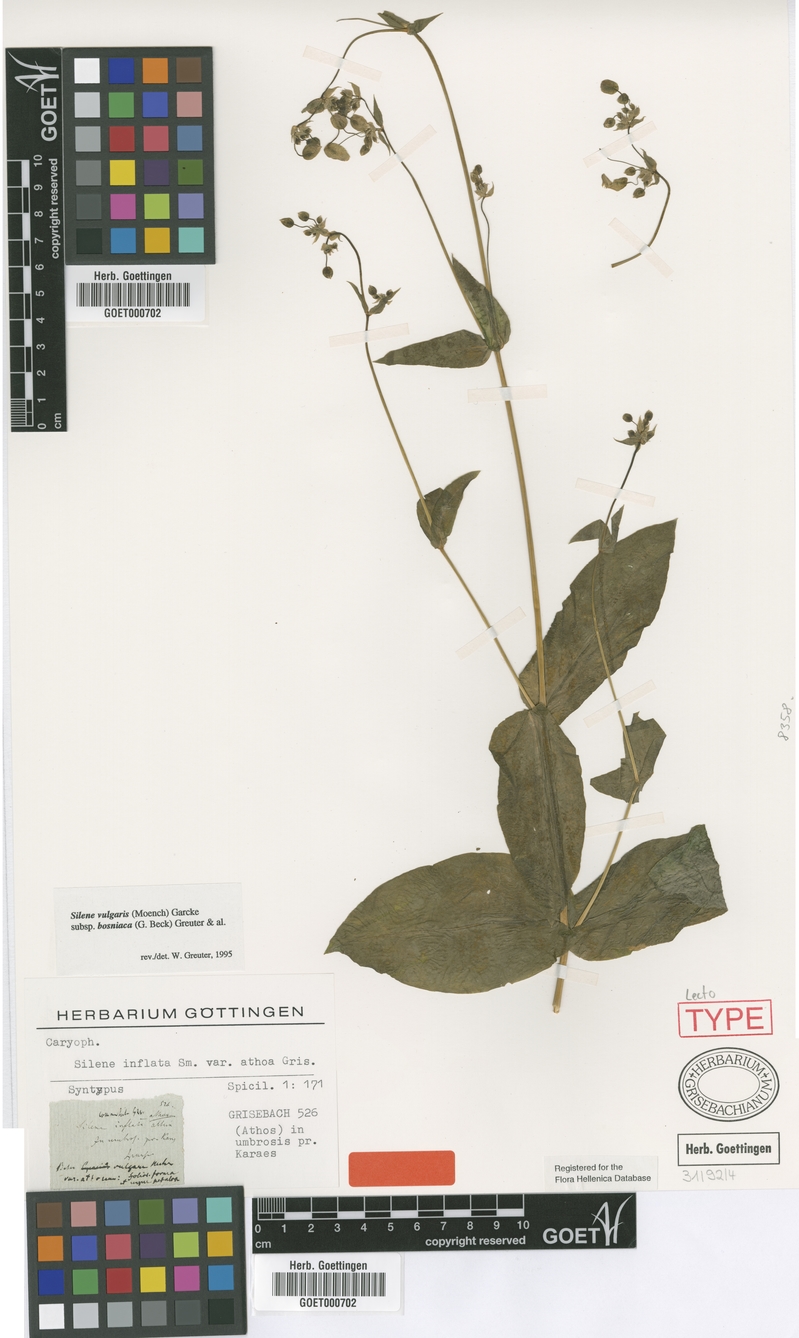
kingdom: Plantae
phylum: Tracheophyta
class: Magnoliopsida
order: Caryophyllales
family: Caryophyllaceae
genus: Silene
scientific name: Silene commutata
